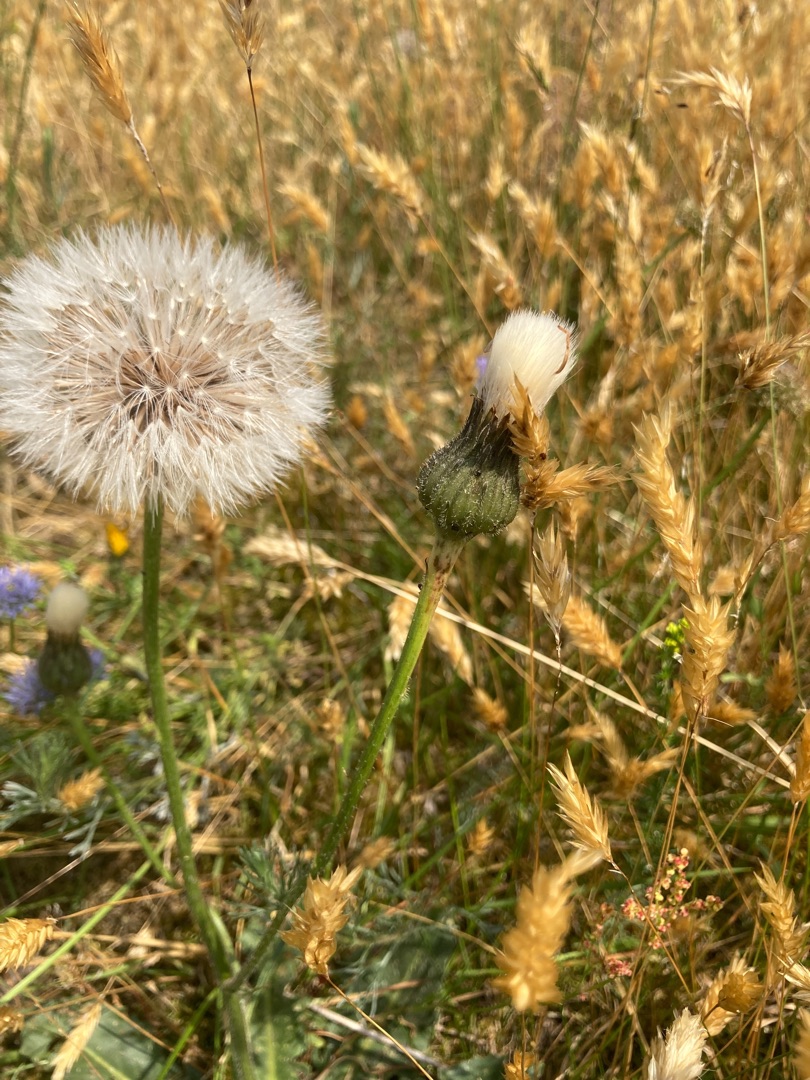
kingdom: Plantae
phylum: Tracheophyta
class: Magnoliopsida
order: Asterales
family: Asteraceae
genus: Trommsdorffia
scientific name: Trommsdorffia maculata
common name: Plettet kongepen
